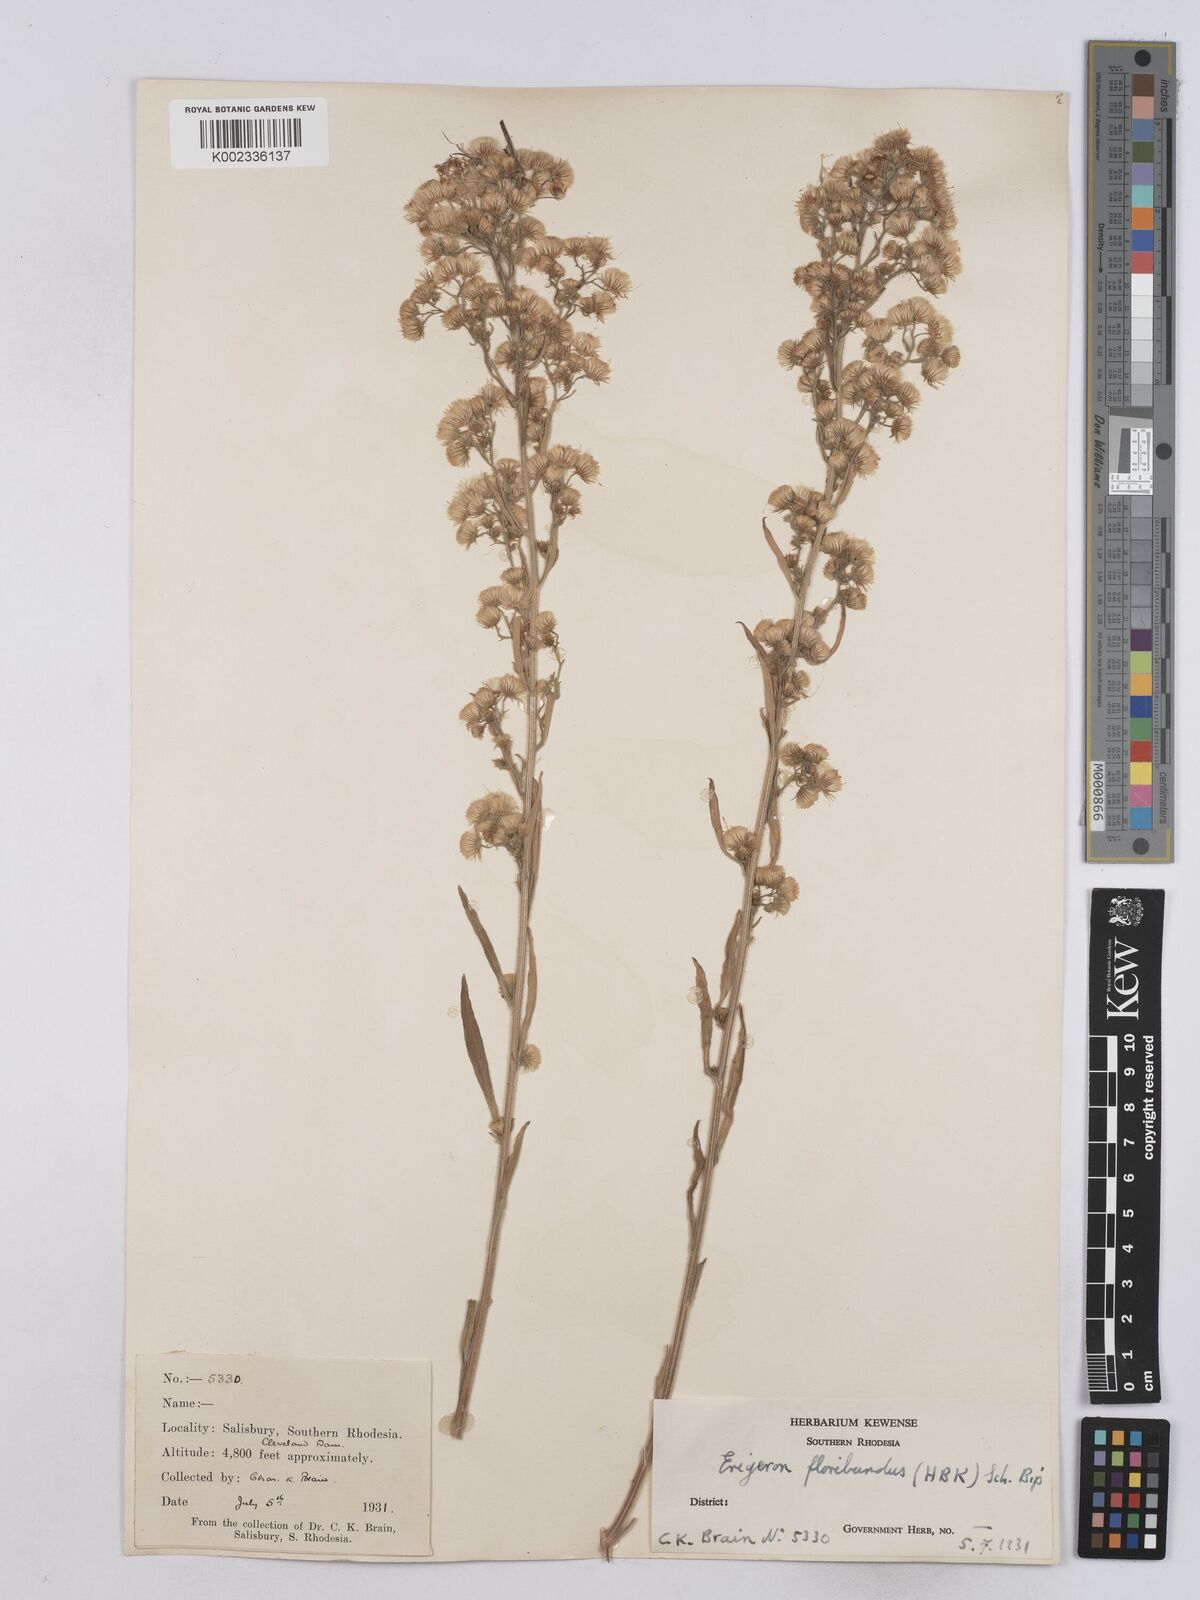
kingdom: Plantae
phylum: Tracheophyta
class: Magnoliopsida
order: Asterales
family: Asteraceae
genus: Erigeron
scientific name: Erigeron floribundus
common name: Bilbao fleabane
